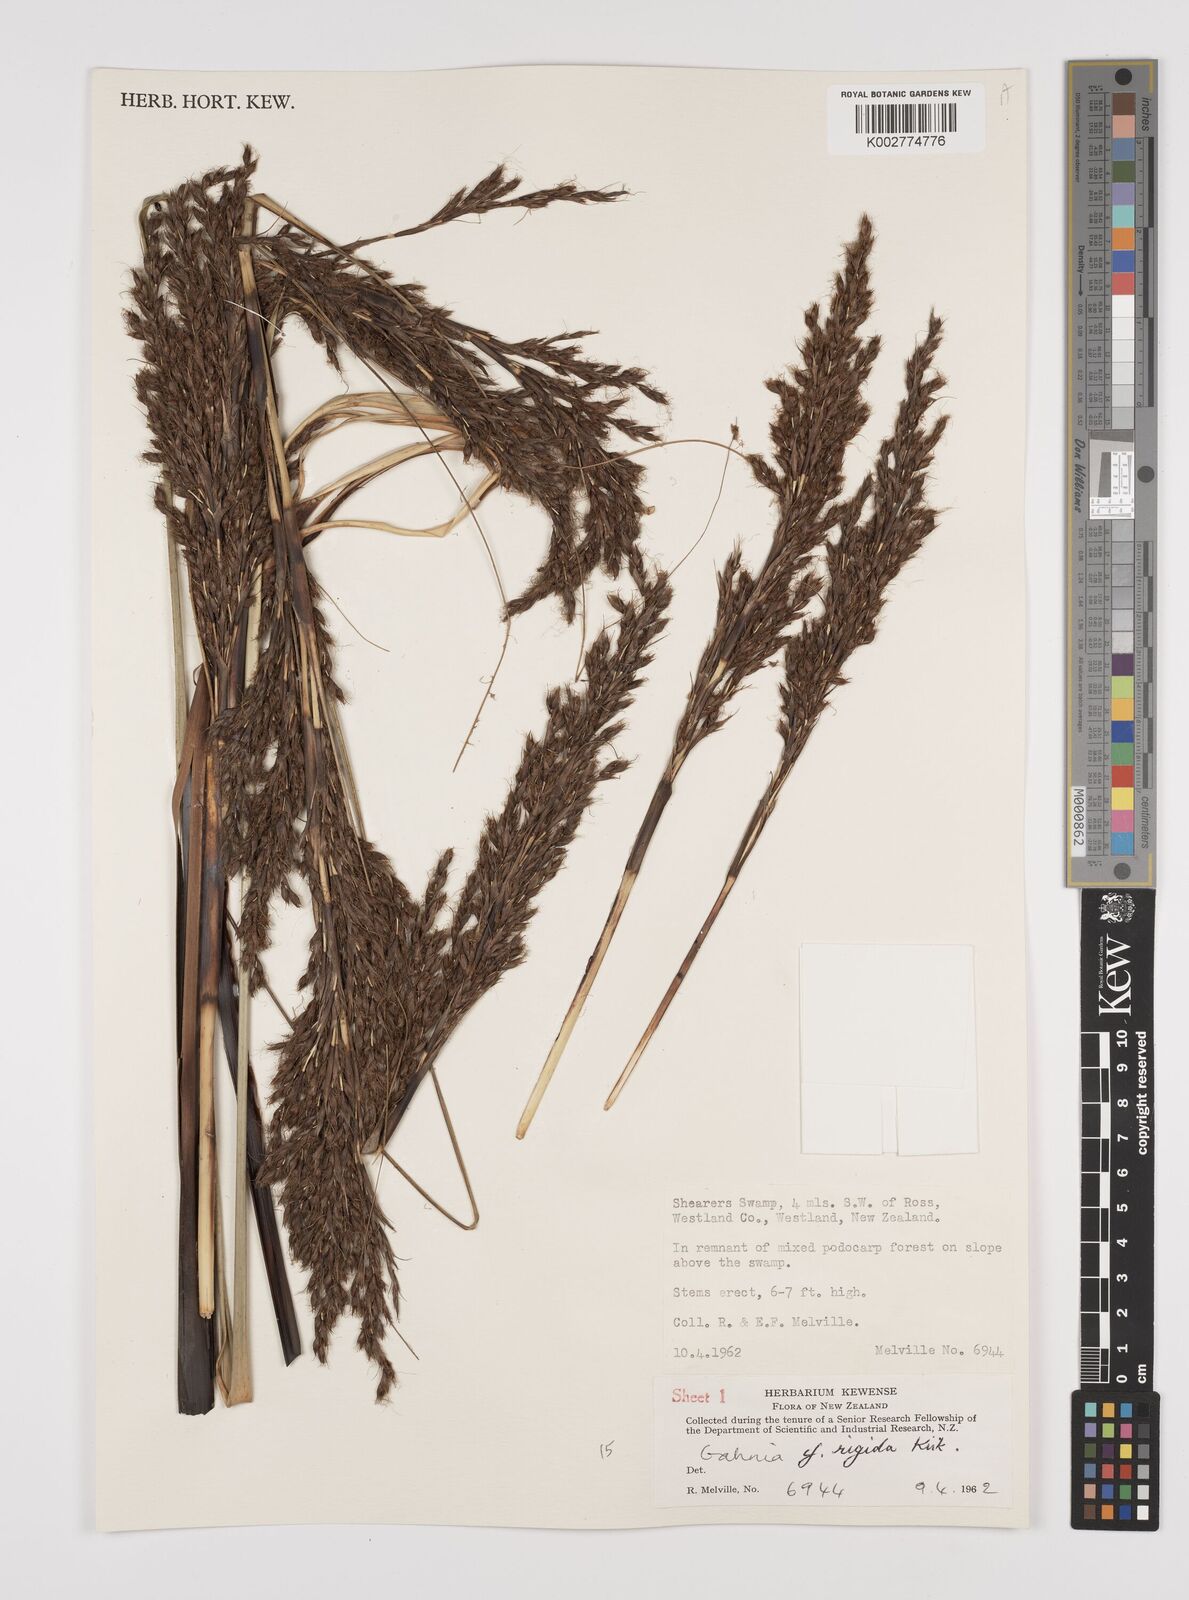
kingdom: Plantae
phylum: Tracheophyta
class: Liliopsida
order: Poales
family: Cyperaceae
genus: Gahnia
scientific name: Gahnia rigida
